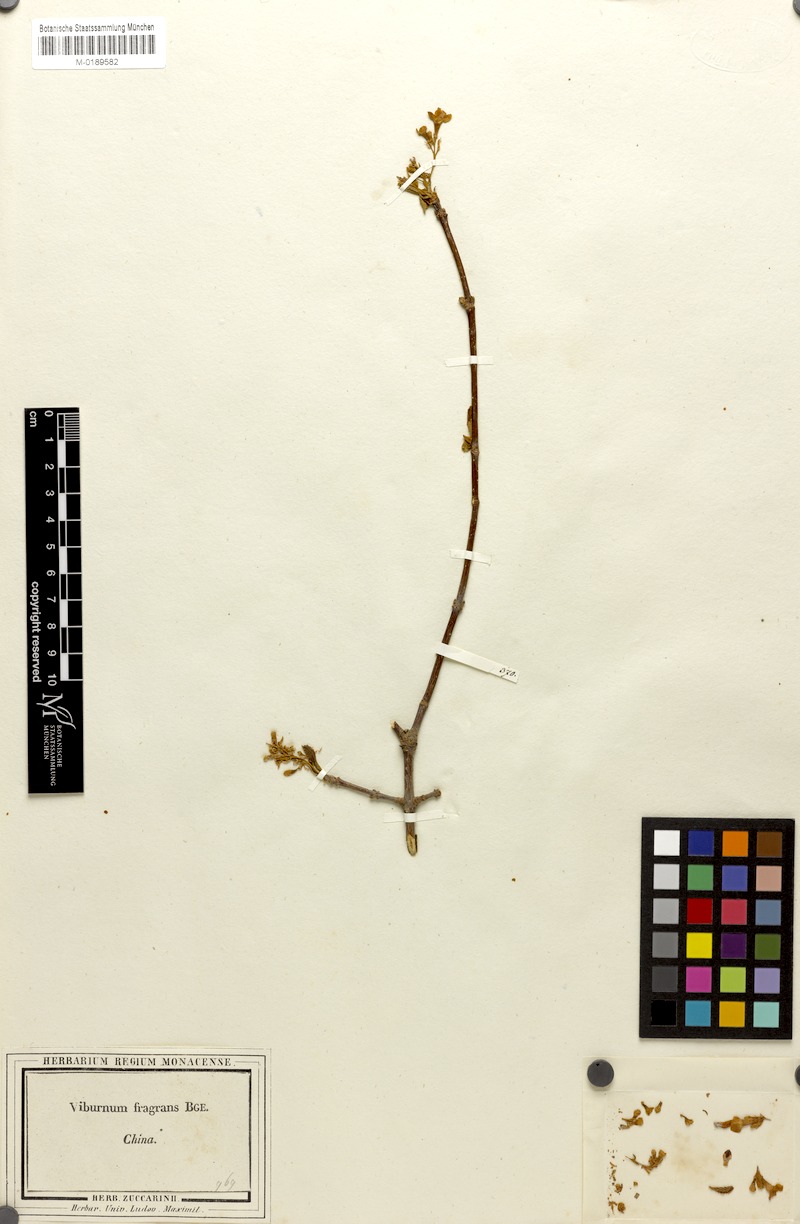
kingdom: Plantae
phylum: Tracheophyta
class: Magnoliopsida
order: Dipsacales
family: Viburnaceae
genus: Viburnum
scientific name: Viburnum farreri
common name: Farrer's viburnum
